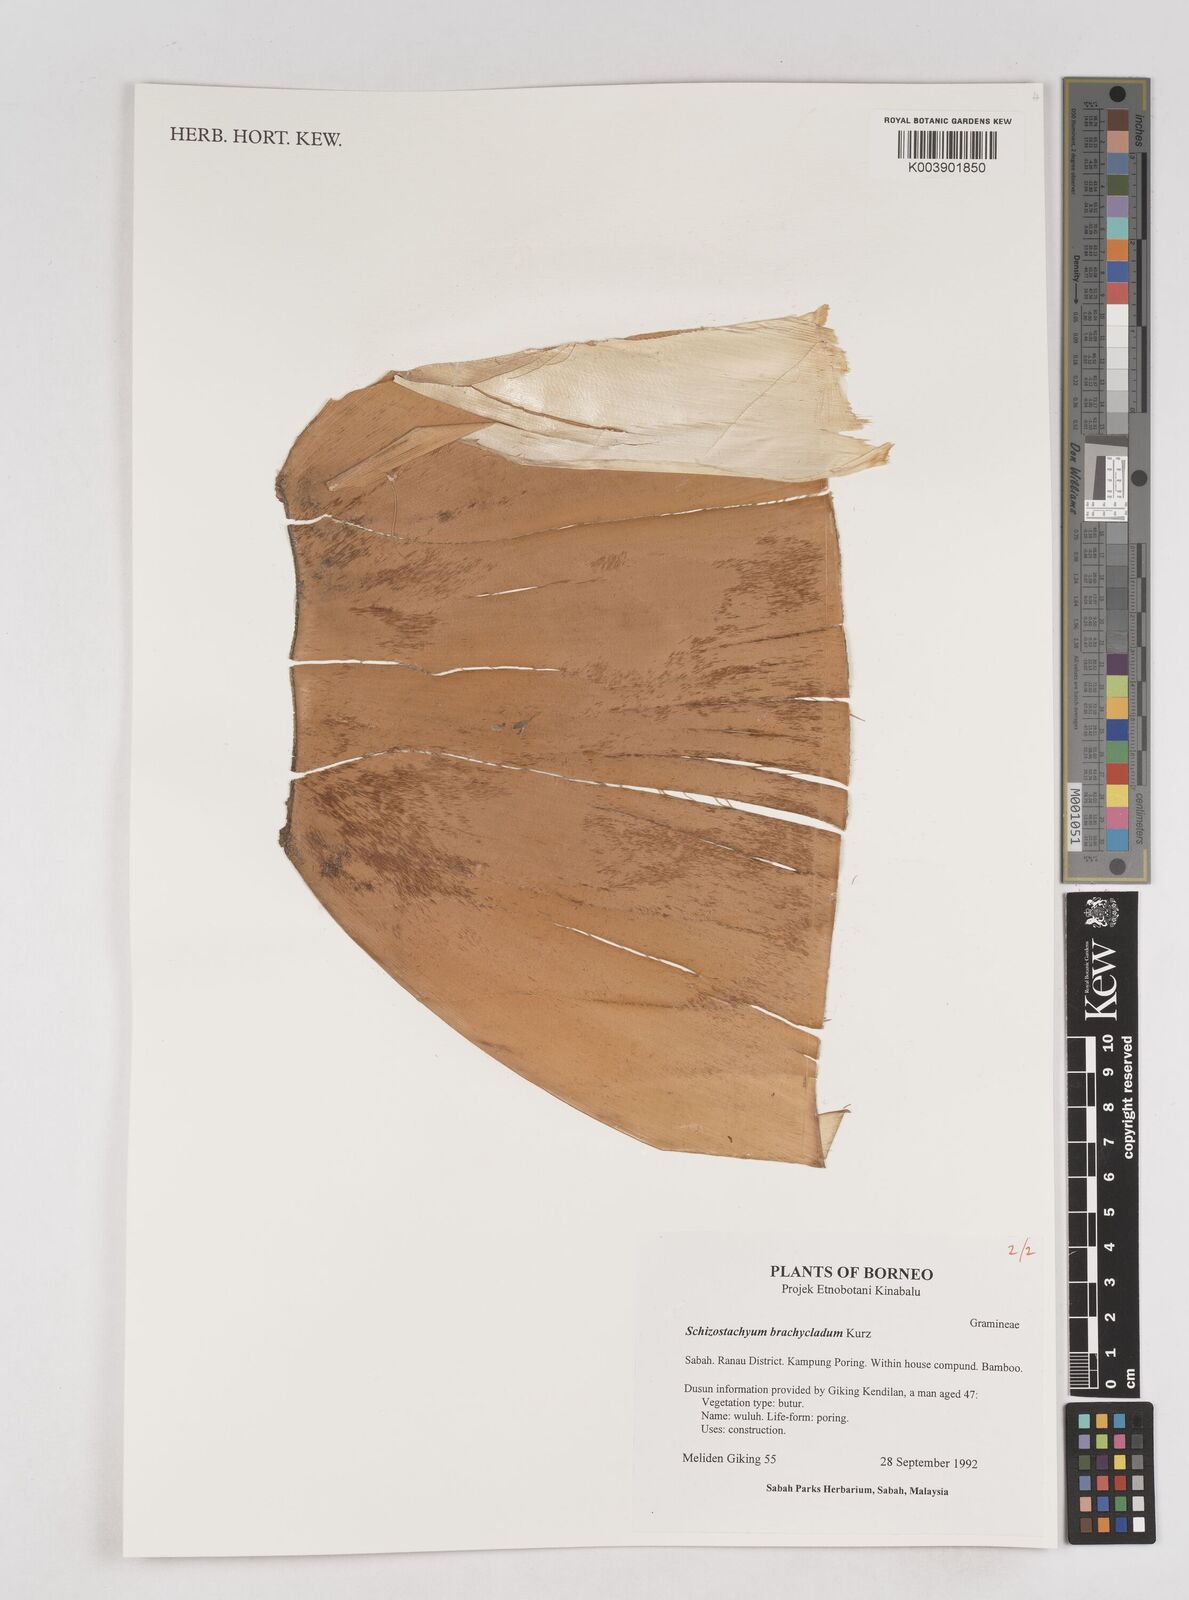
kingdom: Plantae
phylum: Tracheophyta
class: Liliopsida
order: Poales
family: Poaceae
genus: Schizostachyum
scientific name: Schizostachyum brachycladum
